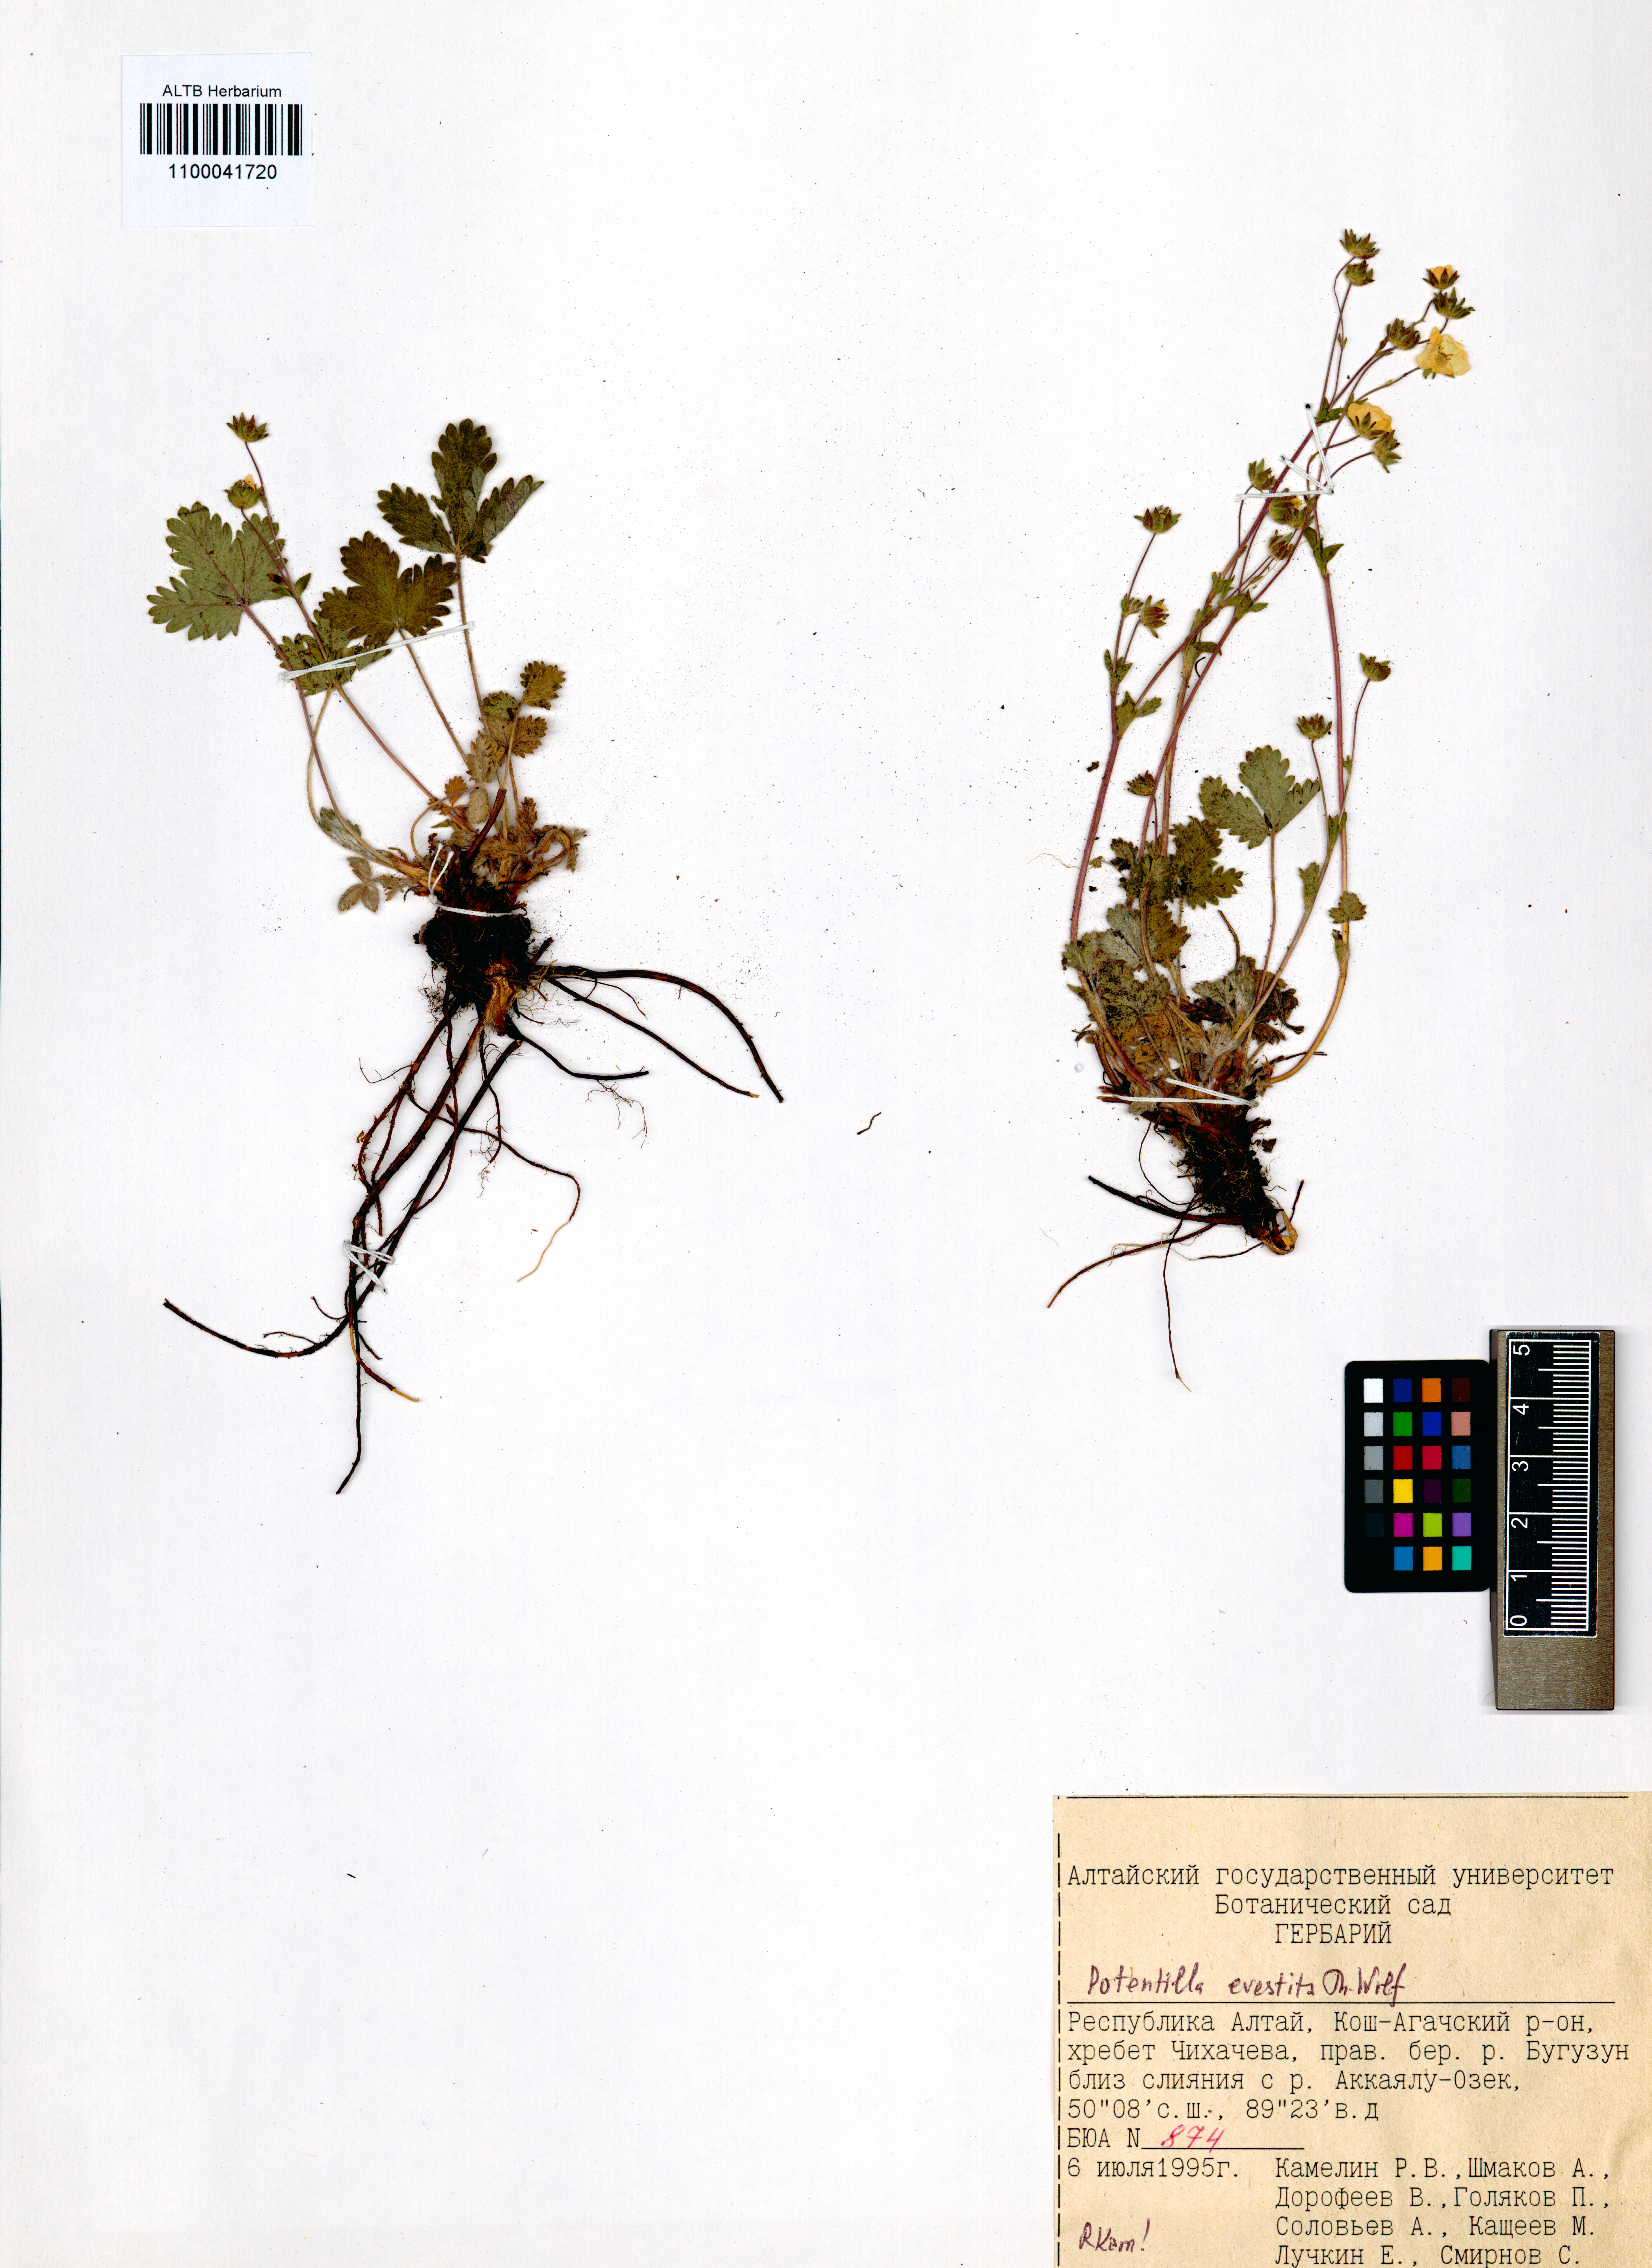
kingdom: Plantae
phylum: Tracheophyta
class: Magnoliopsida
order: Rosales
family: Rosaceae
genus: Potentilla
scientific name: Potentilla evestita
